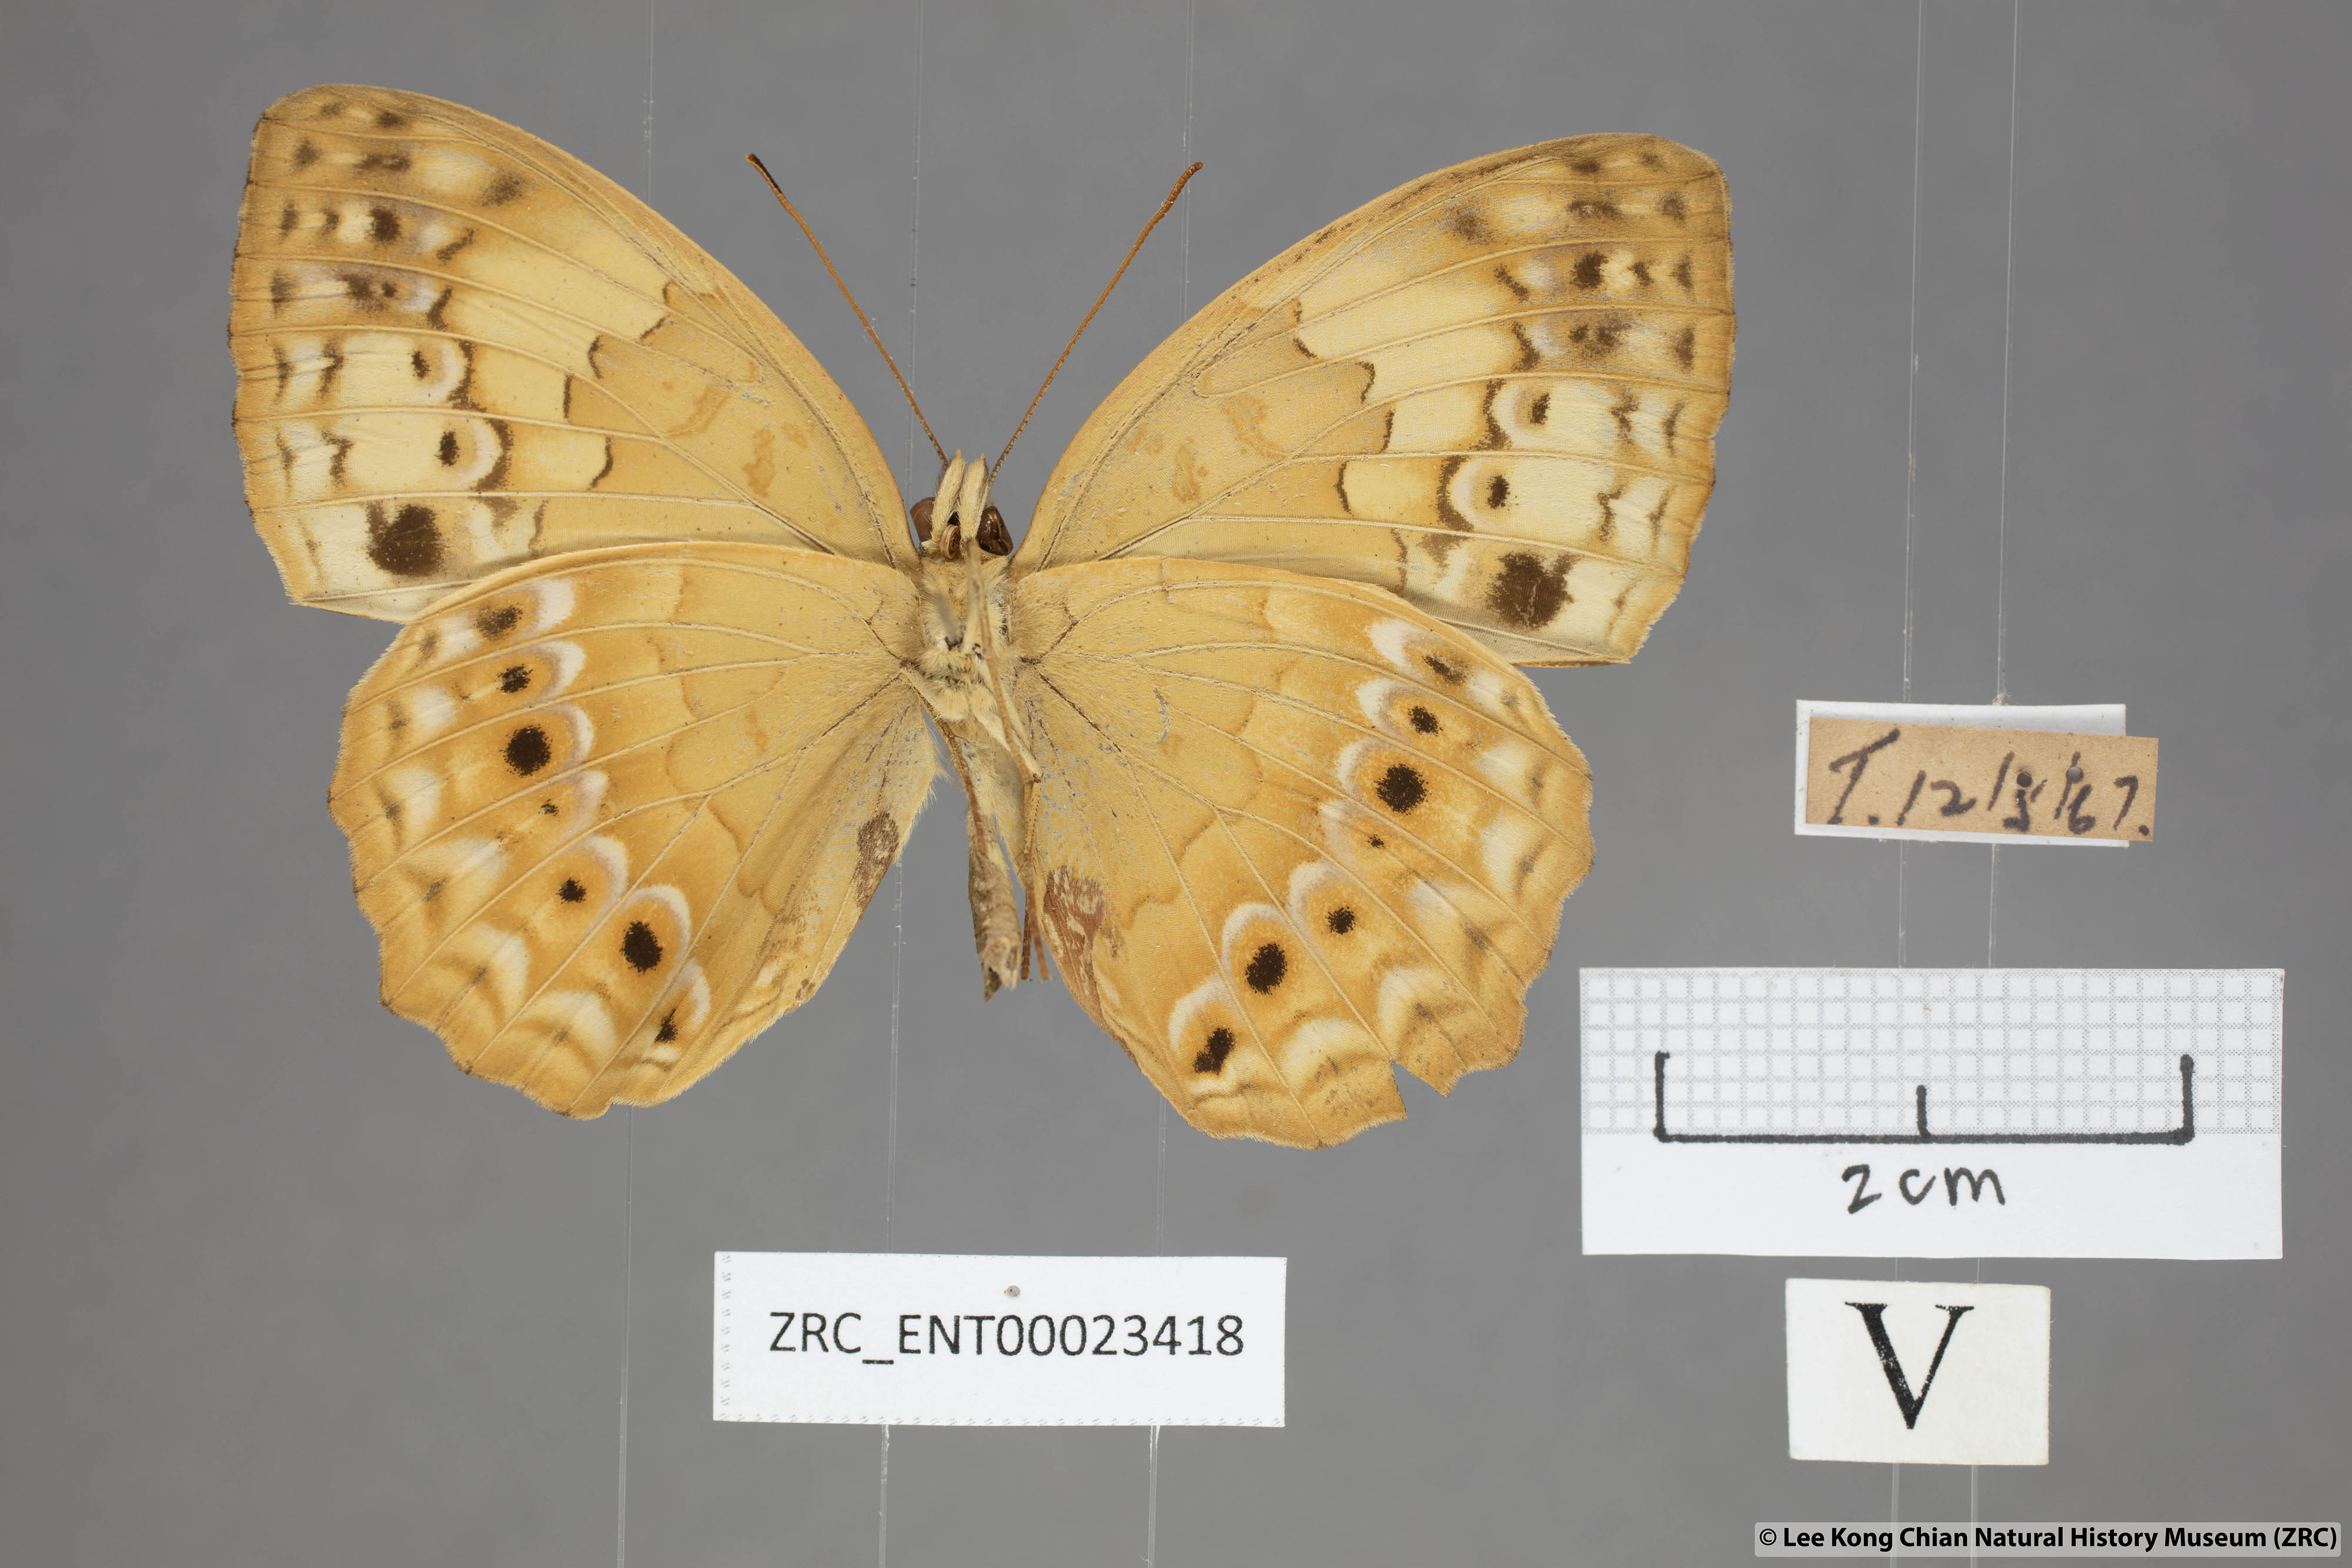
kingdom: Animalia
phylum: Arthropoda
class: Insecta
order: Lepidoptera
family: Nymphalidae
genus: Cupha
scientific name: Cupha erymanthis
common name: Rustic
